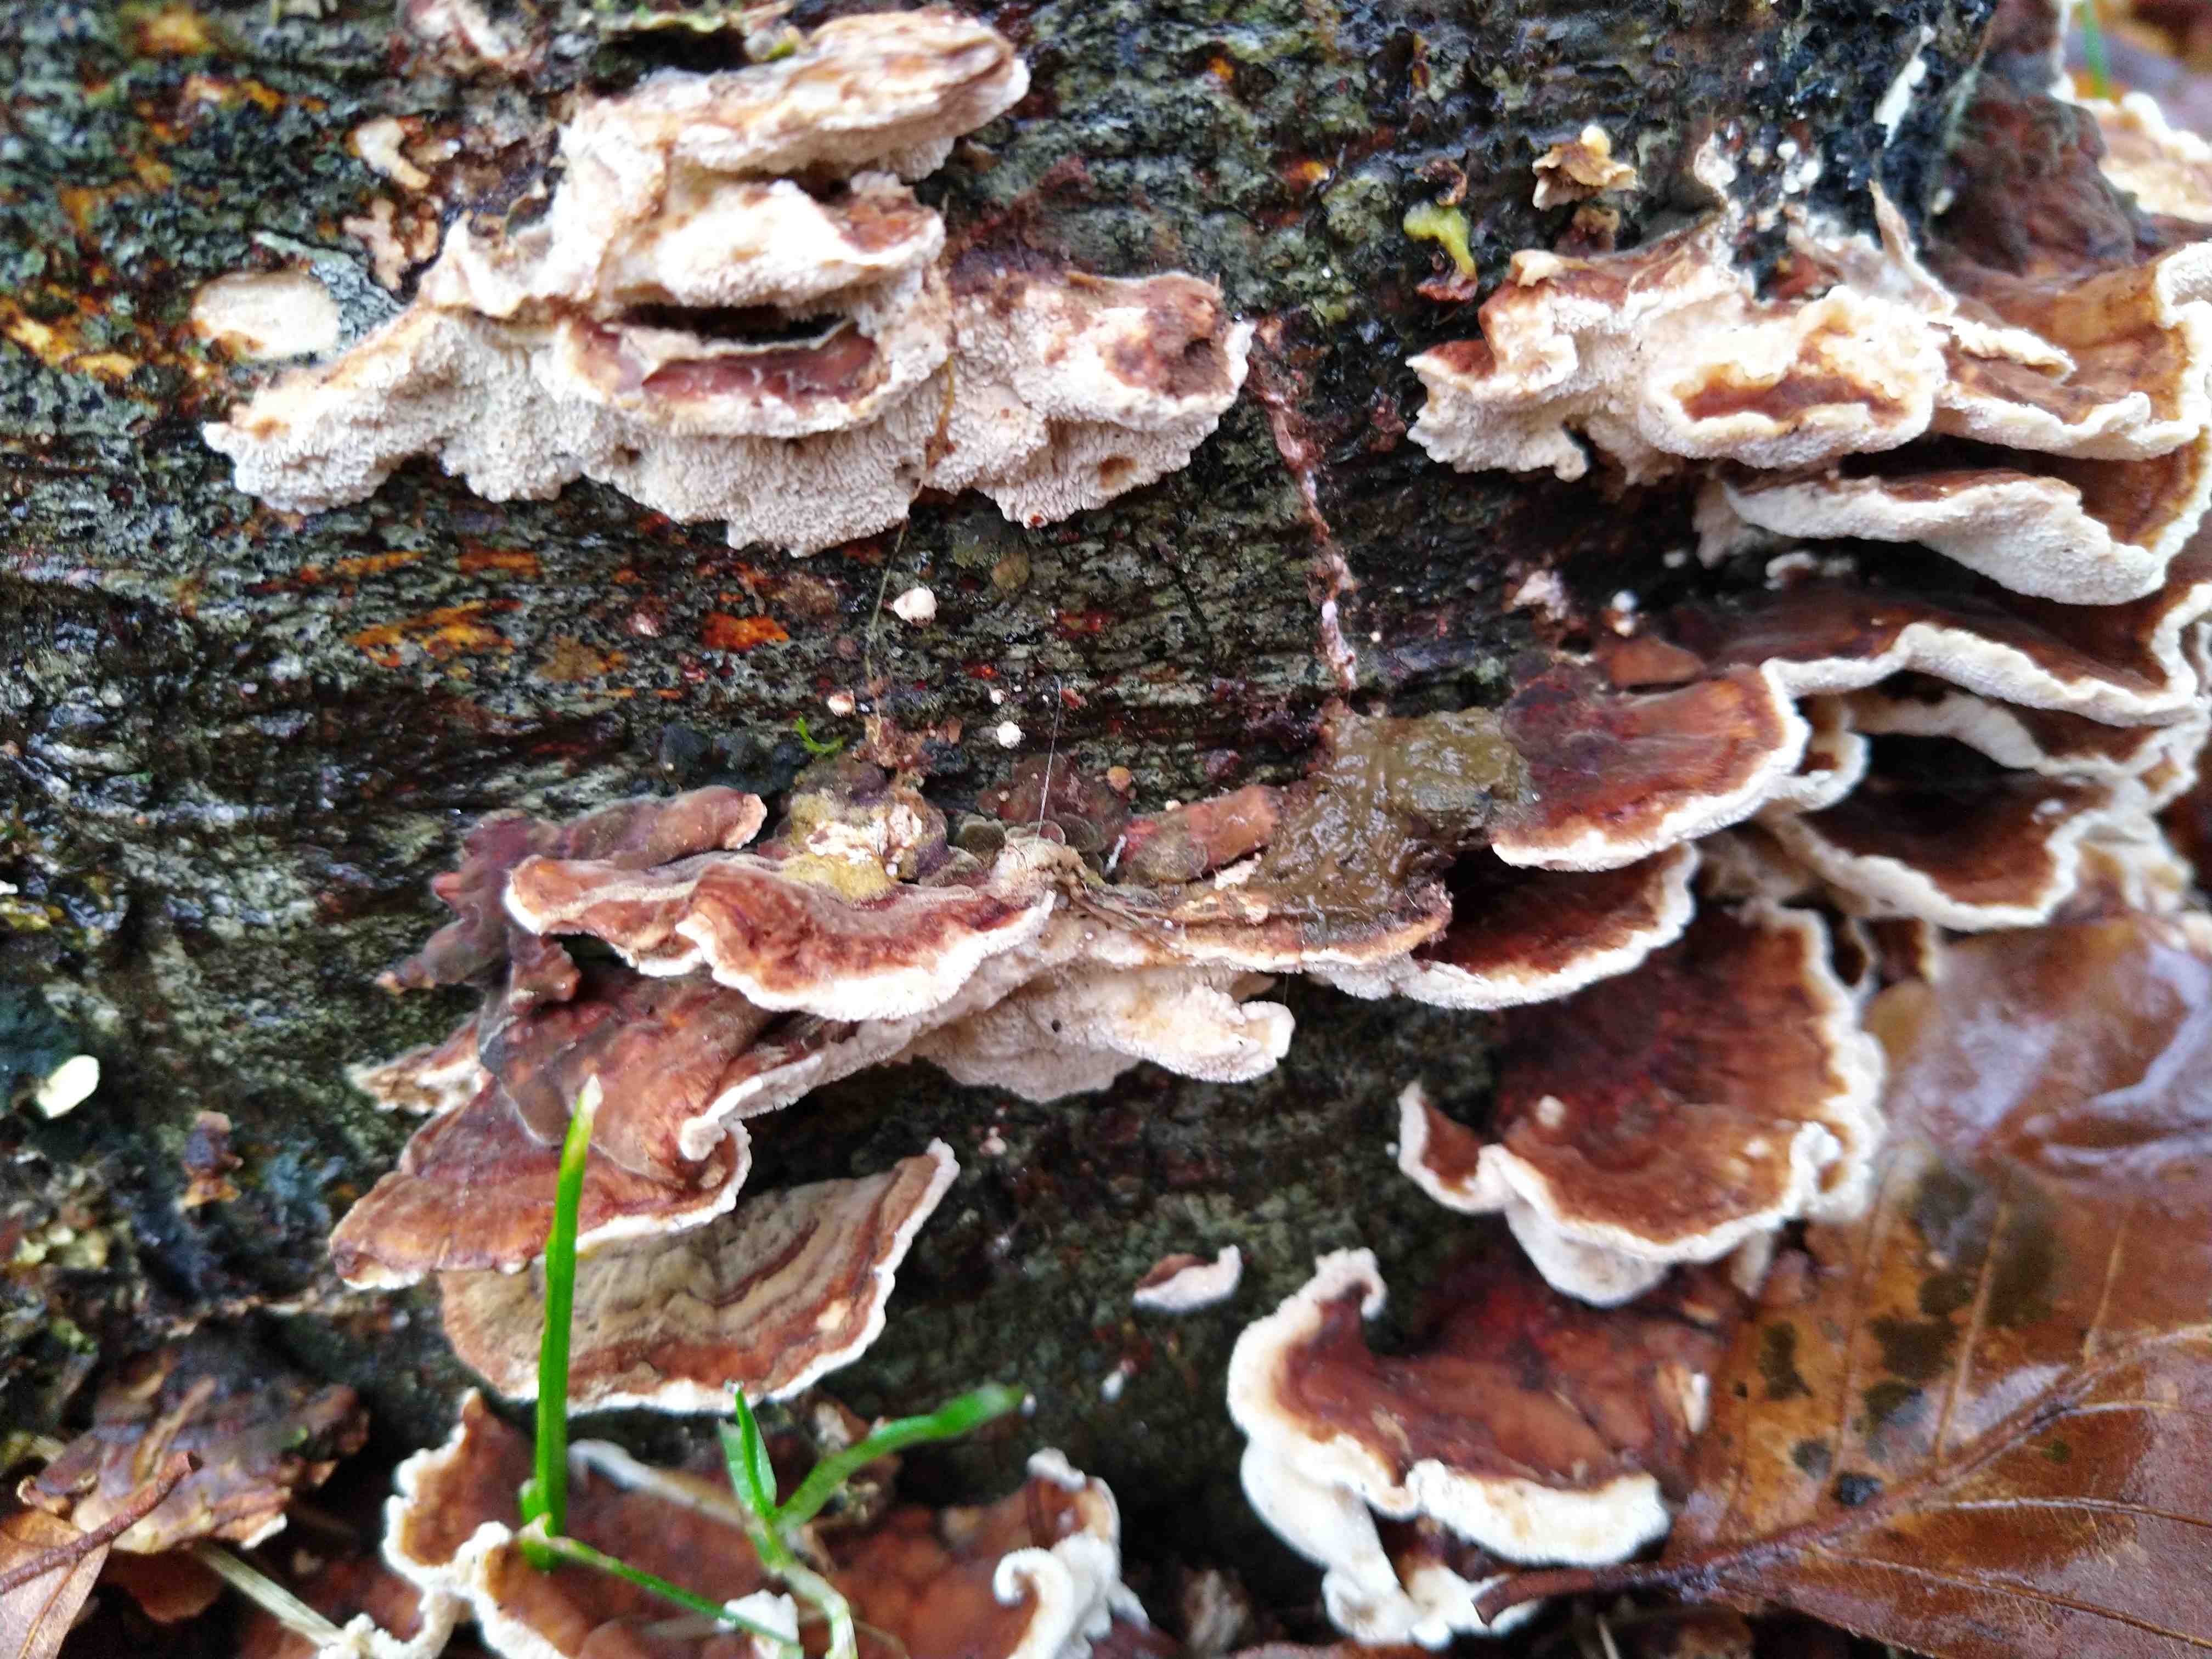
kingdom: Fungi
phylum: Basidiomycota
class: Agaricomycetes
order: Polyporales
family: Polyporaceae
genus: Trametes
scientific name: Trametes versicolor
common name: broget læderporesvamp
